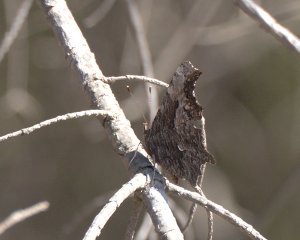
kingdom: Animalia
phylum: Arthropoda
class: Insecta
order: Lepidoptera
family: Nymphalidae
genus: Polygonia
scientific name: Polygonia progne
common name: Gray Comma
